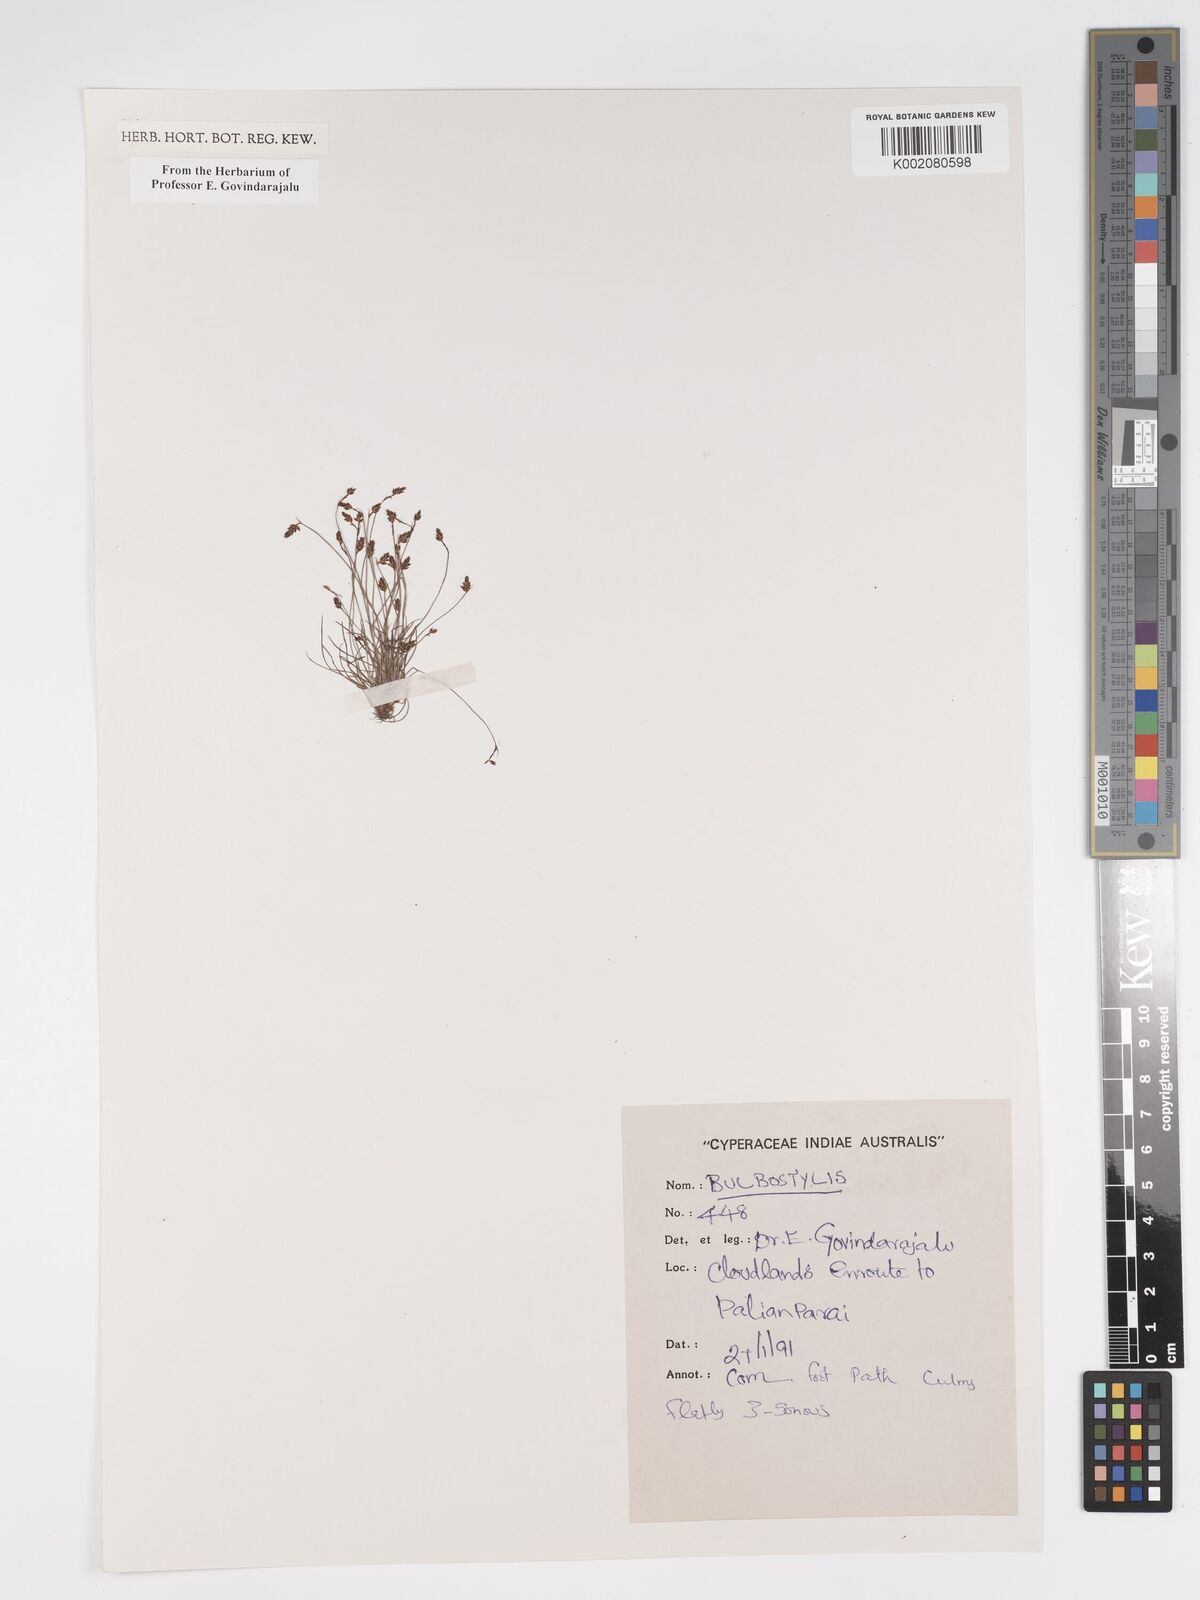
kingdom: Plantae
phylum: Tracheophyta
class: Liliopsida
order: Poales
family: Cyperaceae
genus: Bulbostylis
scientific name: Bulbostylis
